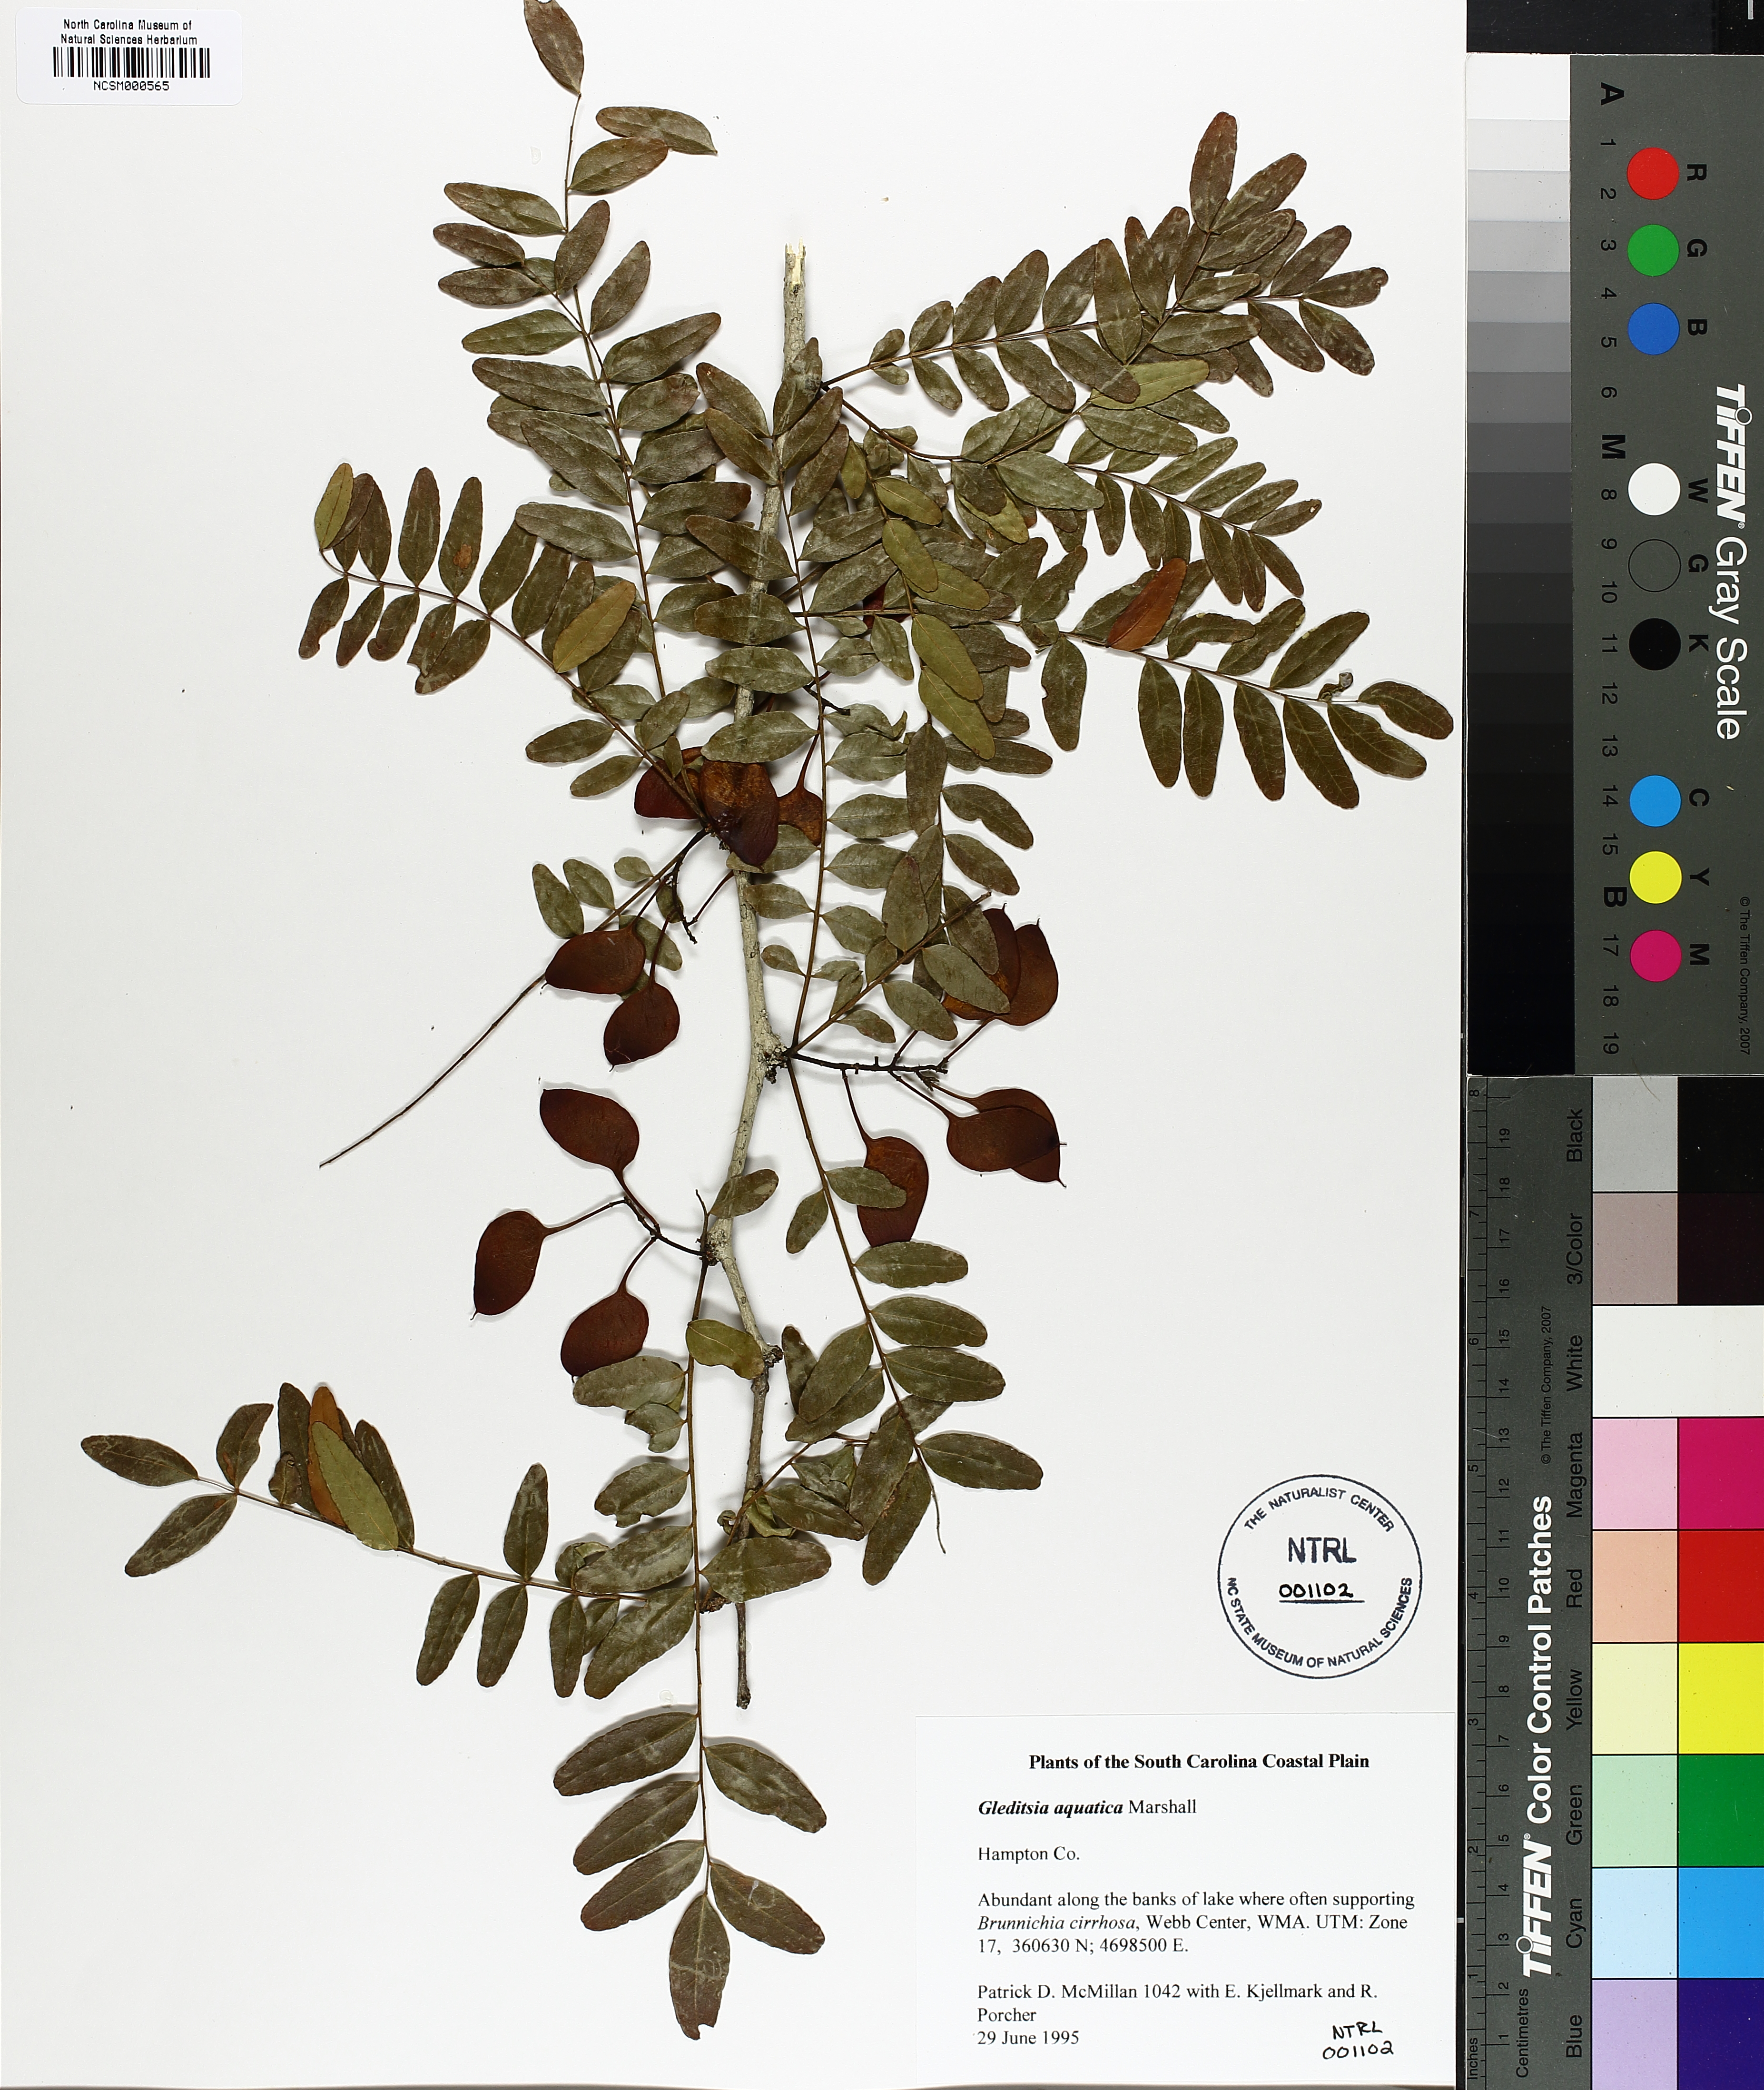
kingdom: Plantae
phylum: Tracheophyta
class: Magnoliopsida
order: Fabales
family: Fabaceae
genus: Gleditsia
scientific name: Gleditsia aquatica
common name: Swamp-locust
